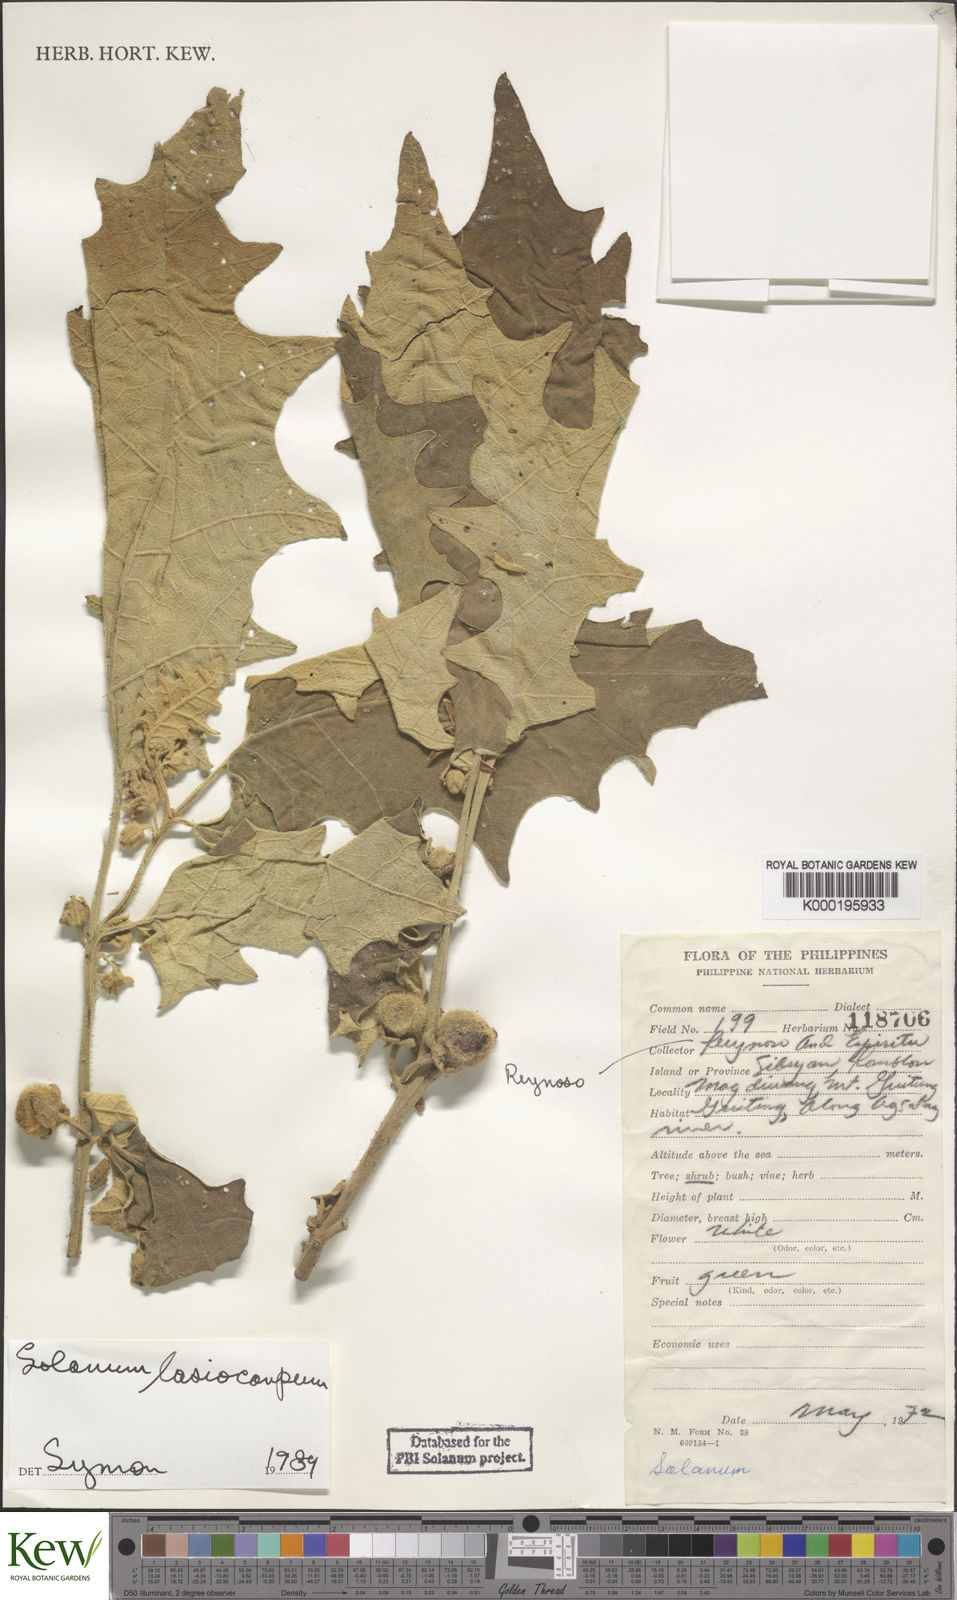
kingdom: Plantae
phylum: Tracheophyta
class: Magnoliopsida
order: Solanales
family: Solanaceae
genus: Solanum
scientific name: Solanum lasiocarpum
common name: Indian nightshade
